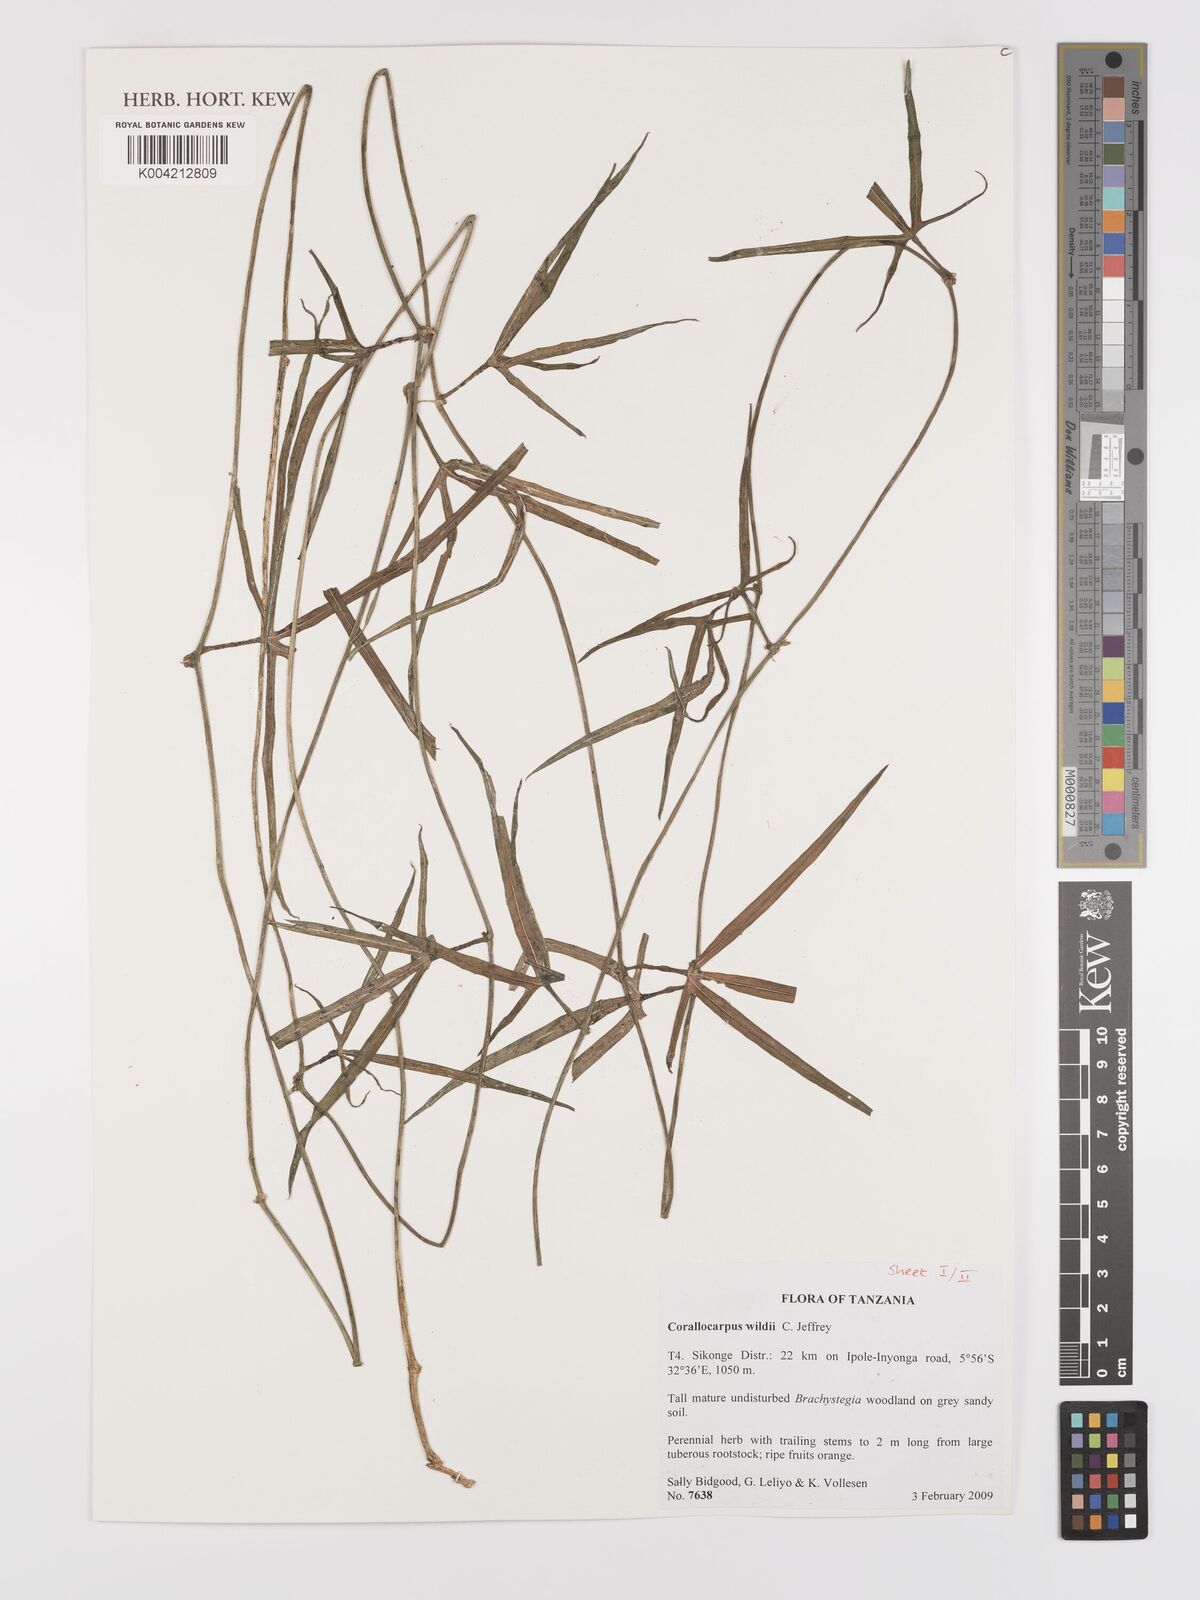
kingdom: Plantae
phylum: Tracheophyta
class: Magnoliopsida
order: Cucurbitales
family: Cucurbitaceae
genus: Corallocarpus
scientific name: Corallocarpus tenuissimus
